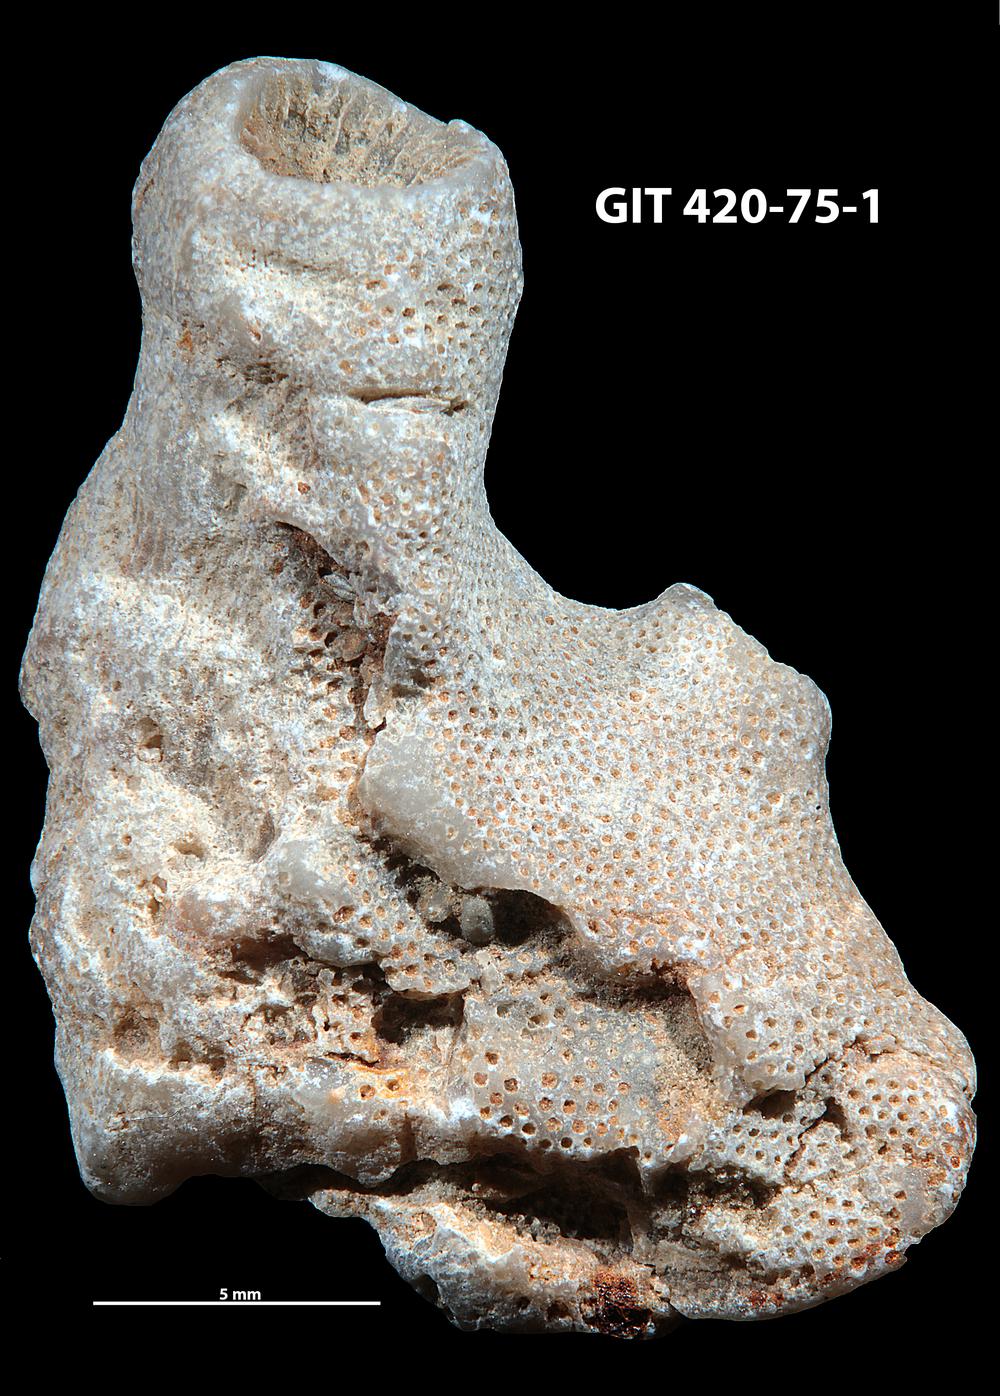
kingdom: Animalia
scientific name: Animalia
